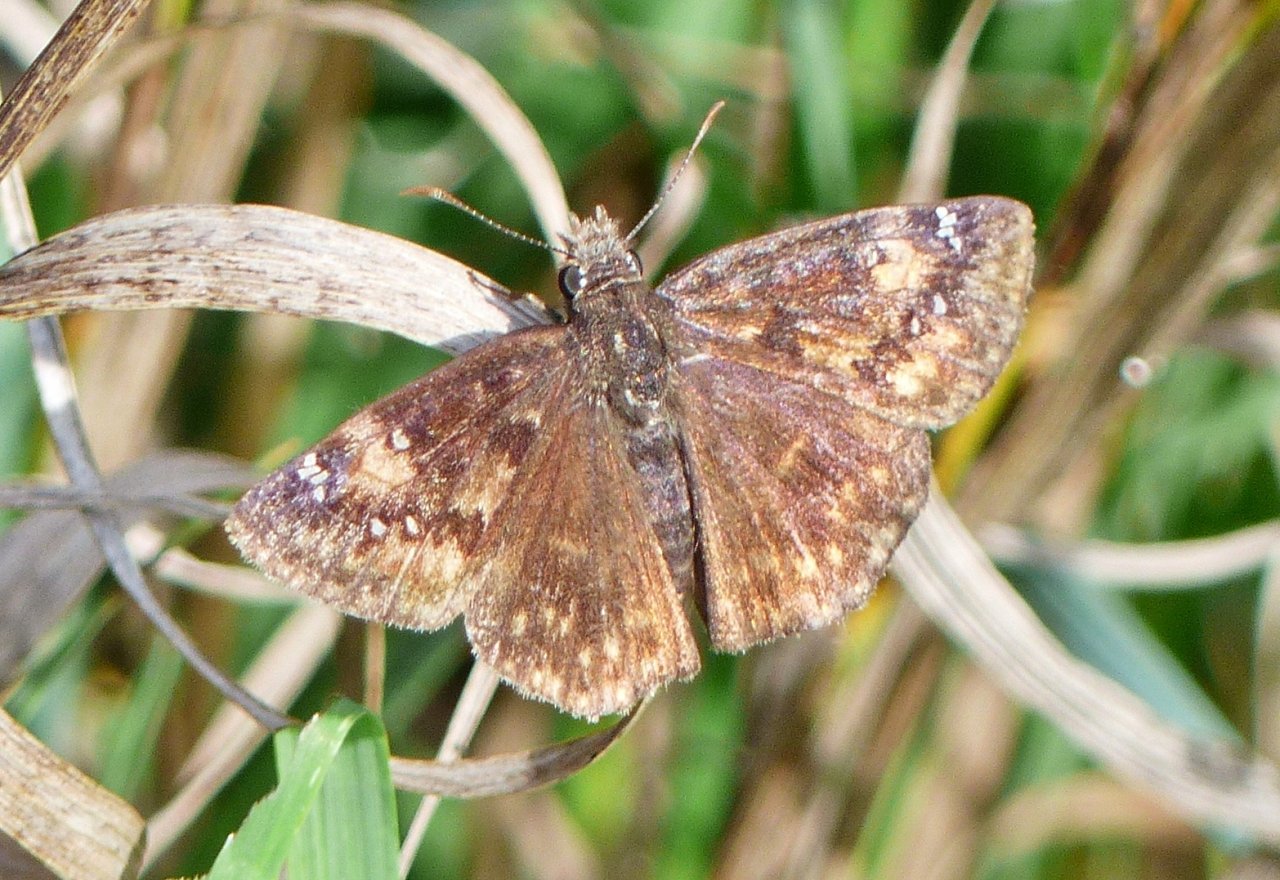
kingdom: Animalia
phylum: Arthropoda
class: Insecta
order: Lepidoptera
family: Hesperiidae
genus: Gesta
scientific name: Gesta
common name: Wild Indigo Duskywing
